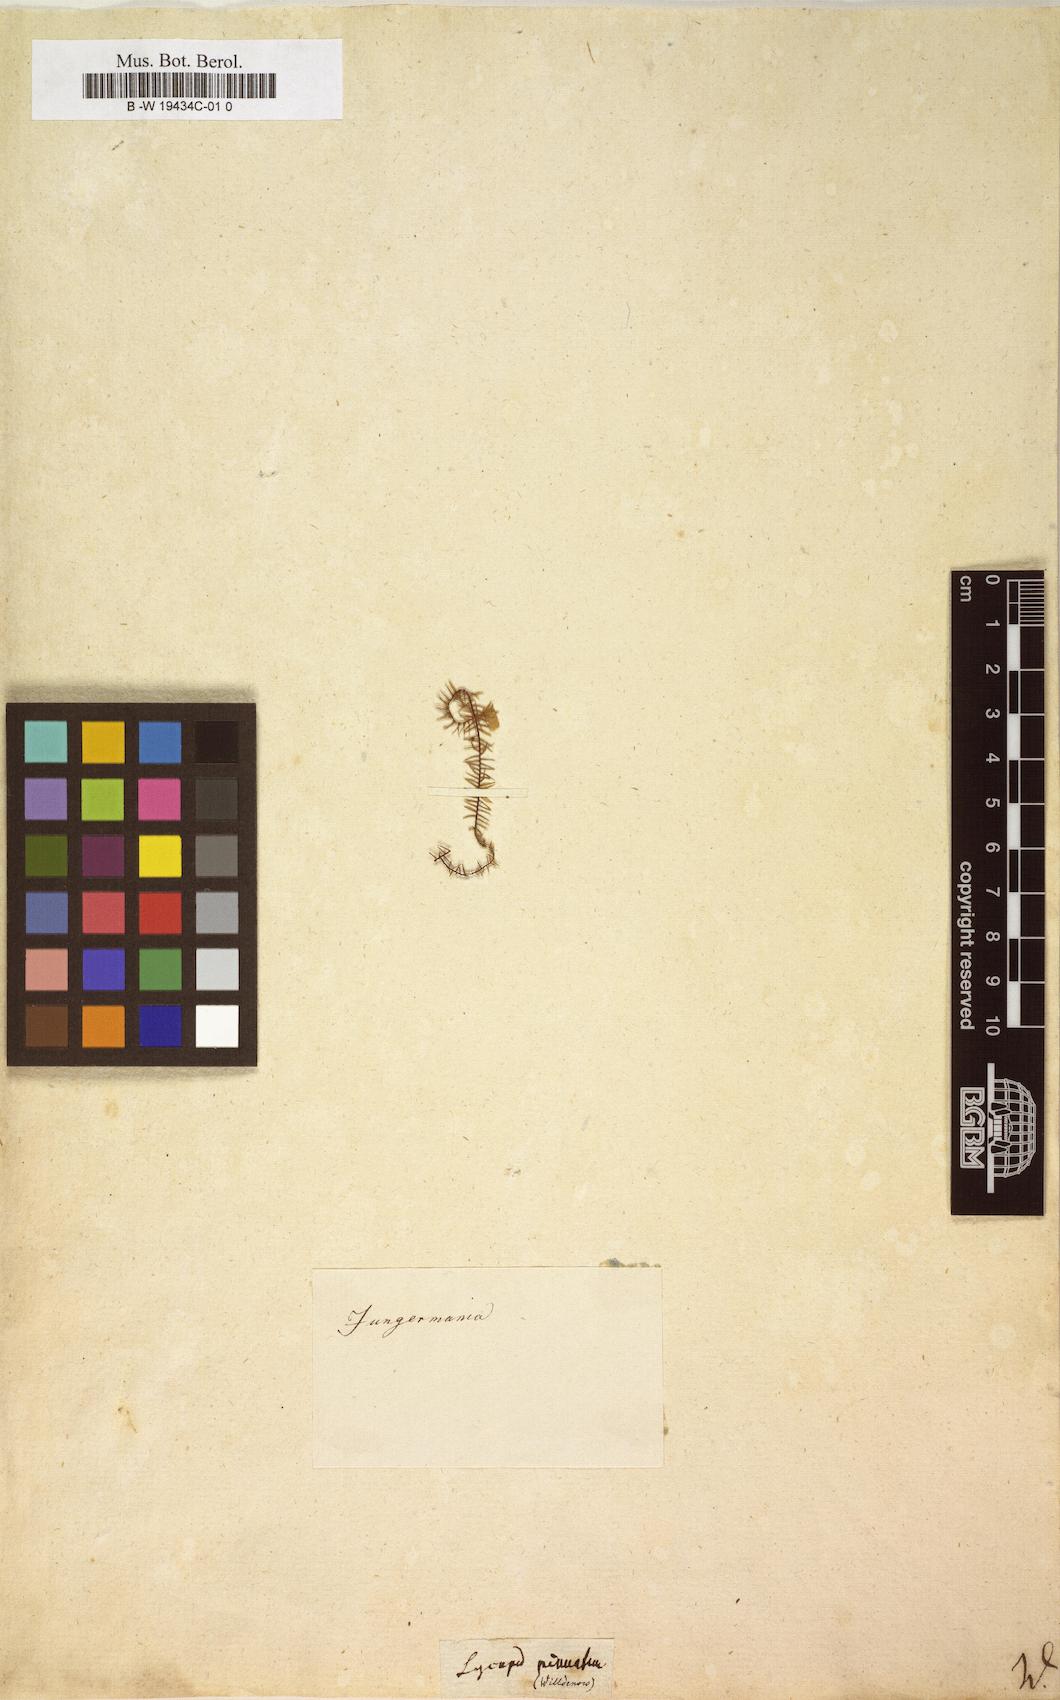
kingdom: Plantae
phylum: Tracheophyta
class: Lycopodiopsida
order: Lycopodiales
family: Lycopodiaceae
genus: Lycopodium
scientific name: Lycopodium pinnatum
